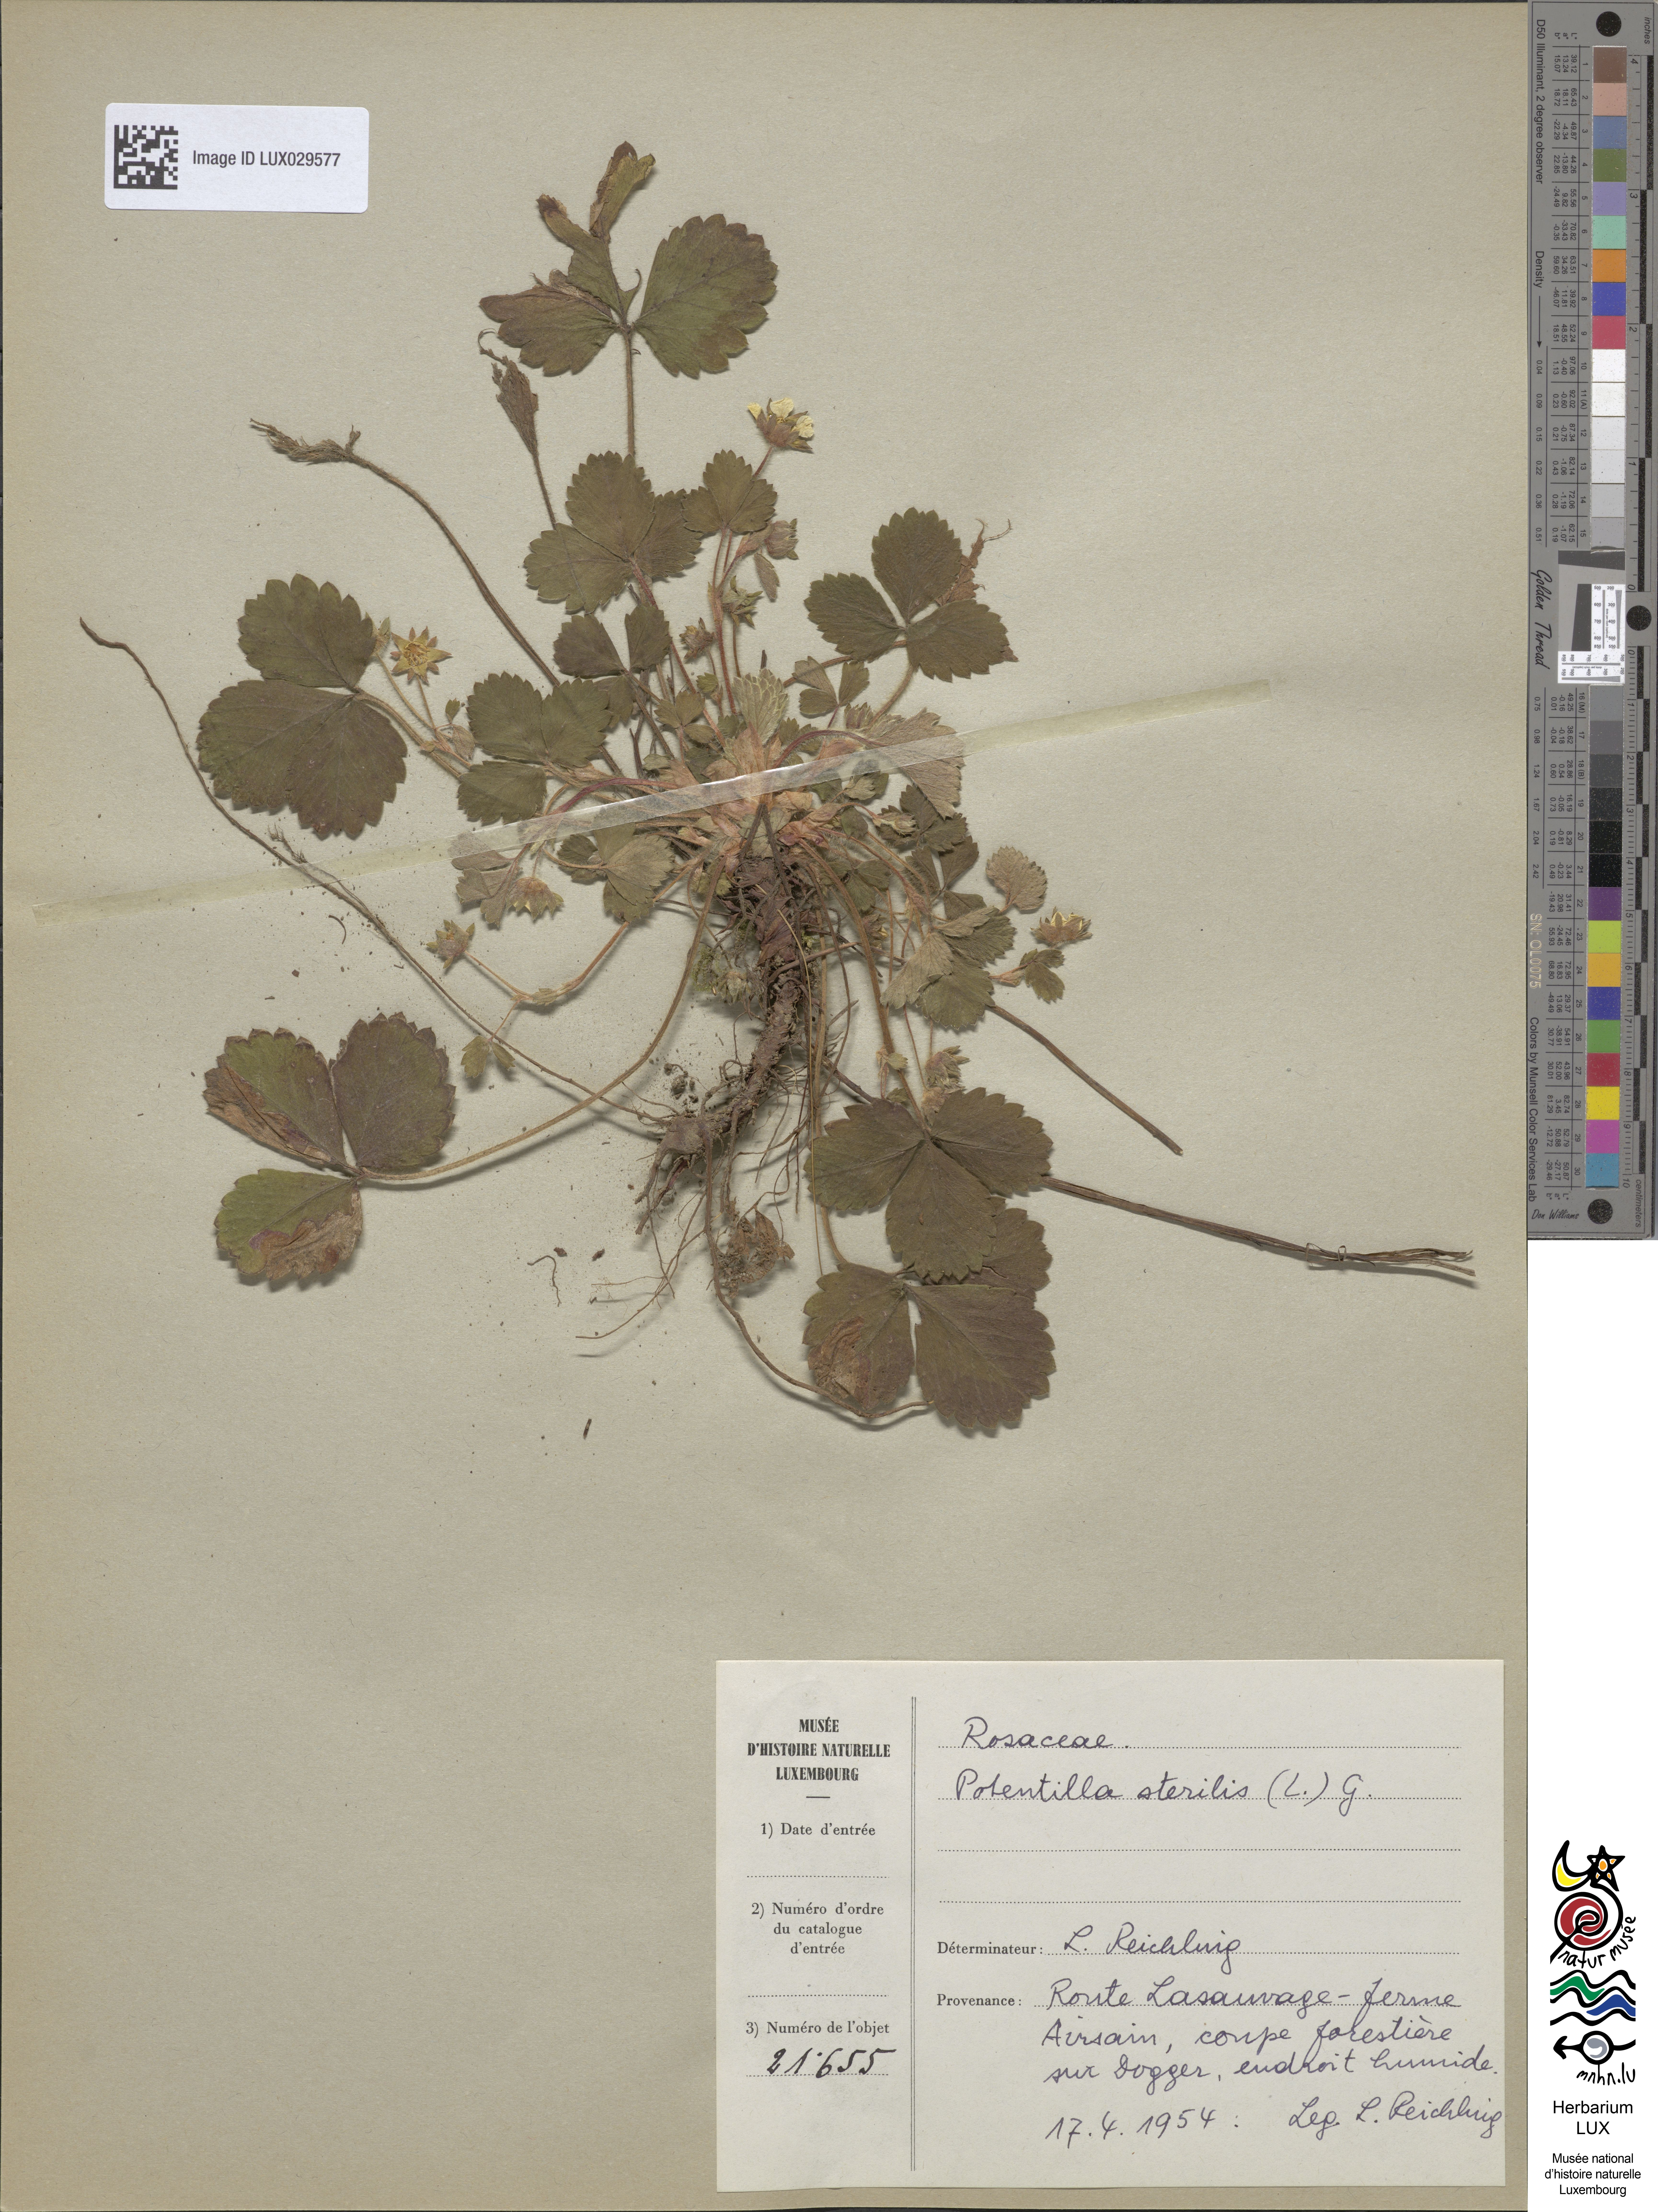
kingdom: Plantae
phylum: Tracheophyta
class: Magnoliopsida
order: Rosales
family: Rosaceae
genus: Potentilla
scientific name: Potentilla sterilis
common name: Barren strawberry
